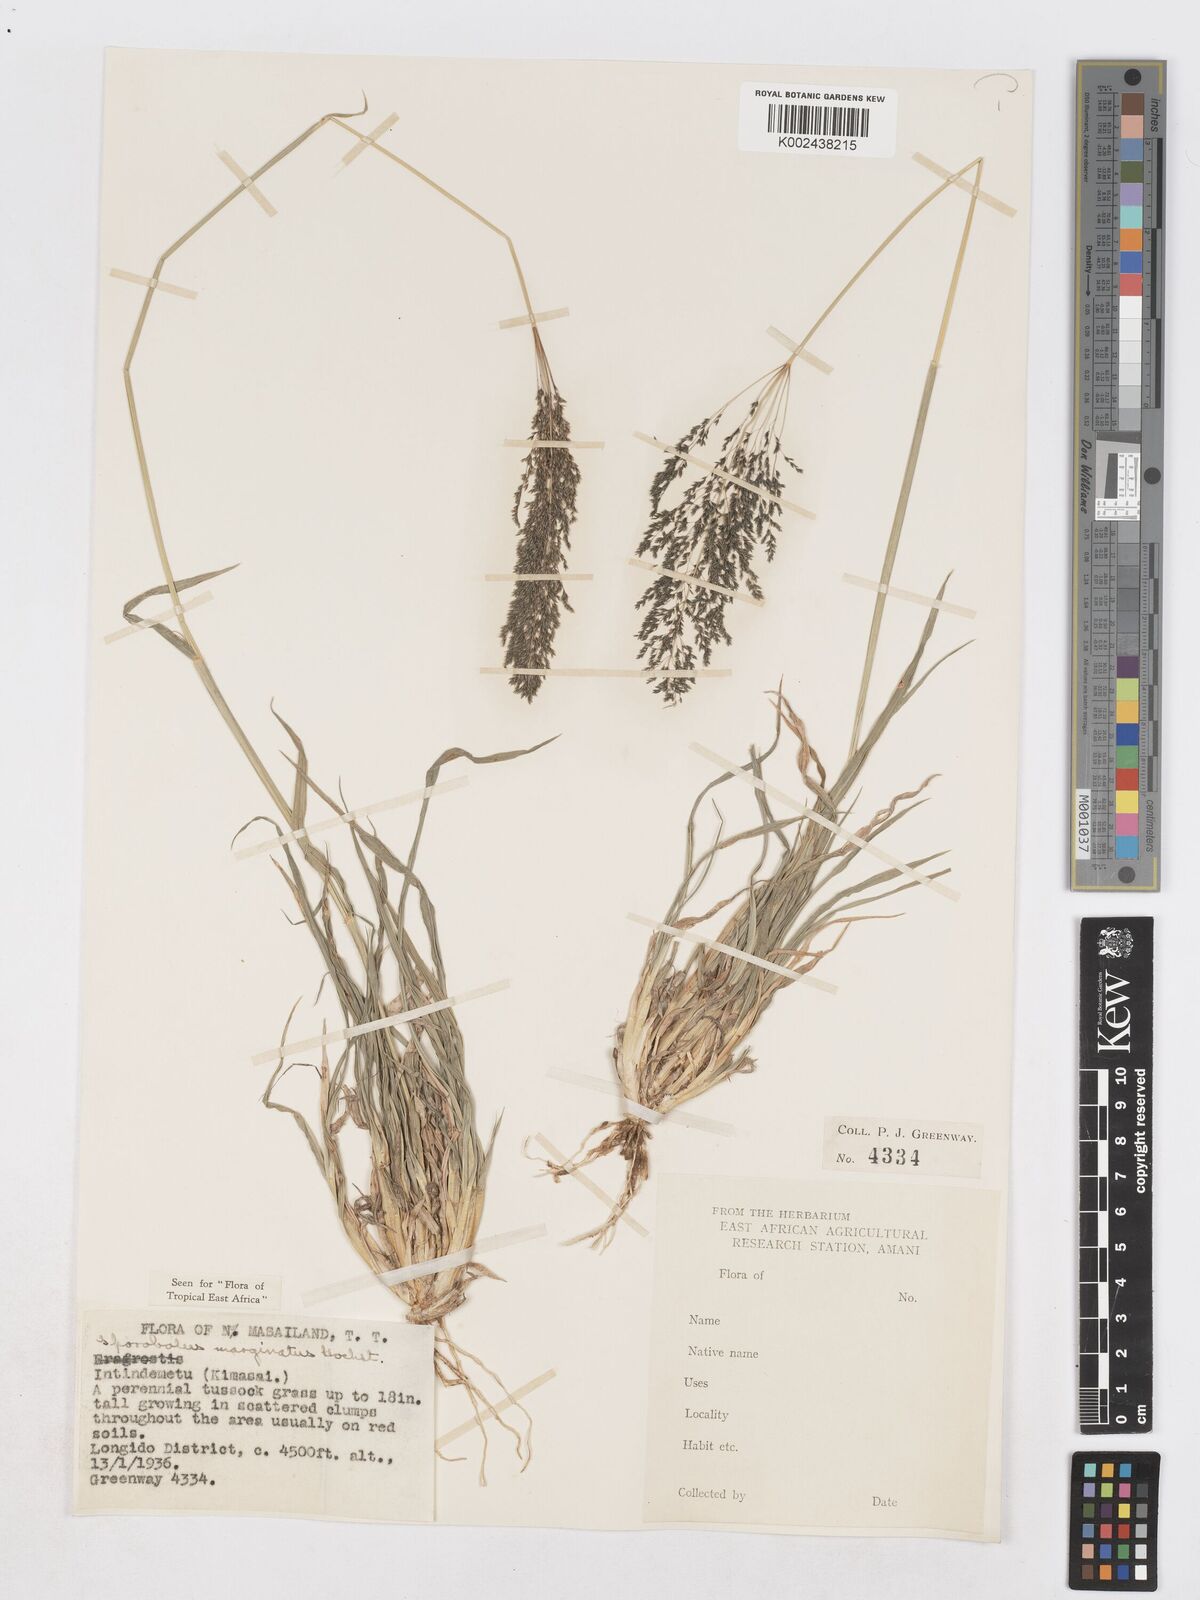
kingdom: Plantae
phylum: Tracheophyta
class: Liliopsida
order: Poales
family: Poaceae
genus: Sporobolus
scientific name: Sporobolus ioclados
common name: Pan dropseed
